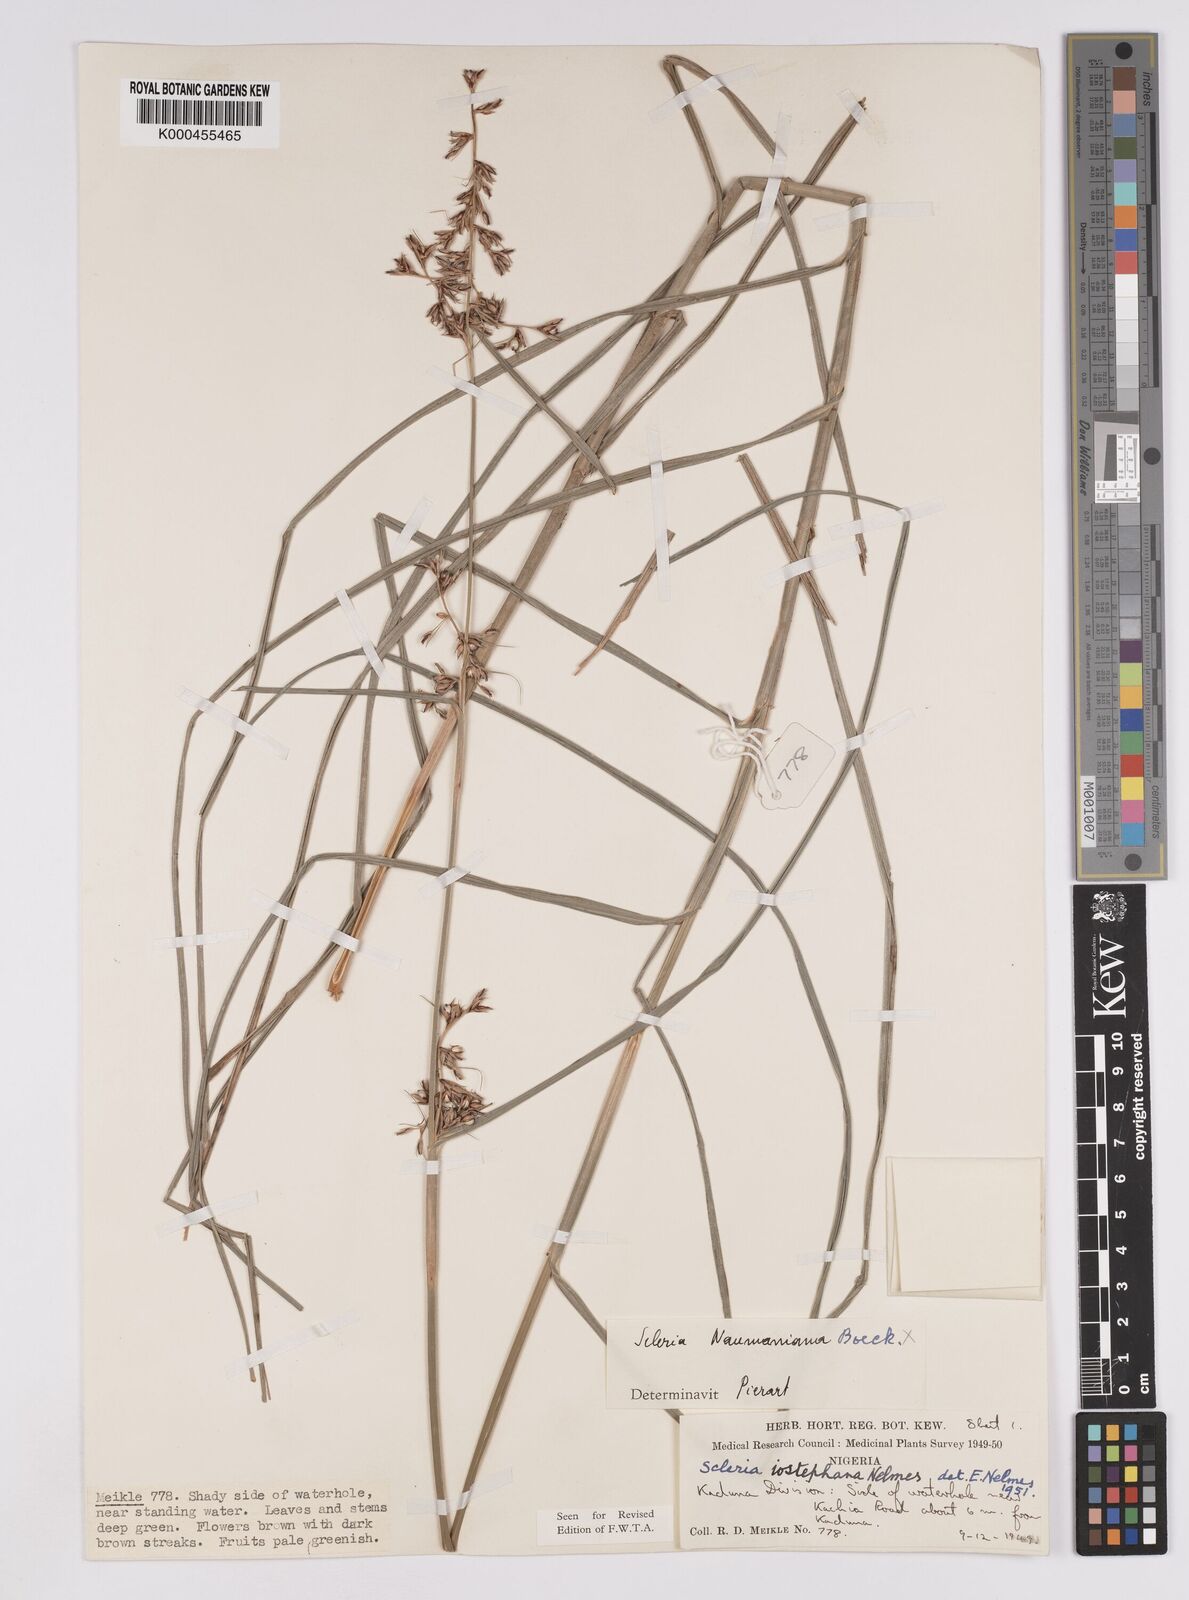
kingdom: Plantae
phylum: Tracheophyta
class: Liliopsida
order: Poales
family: Cyperaceae
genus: Scleria
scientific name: Scleria iostephana
